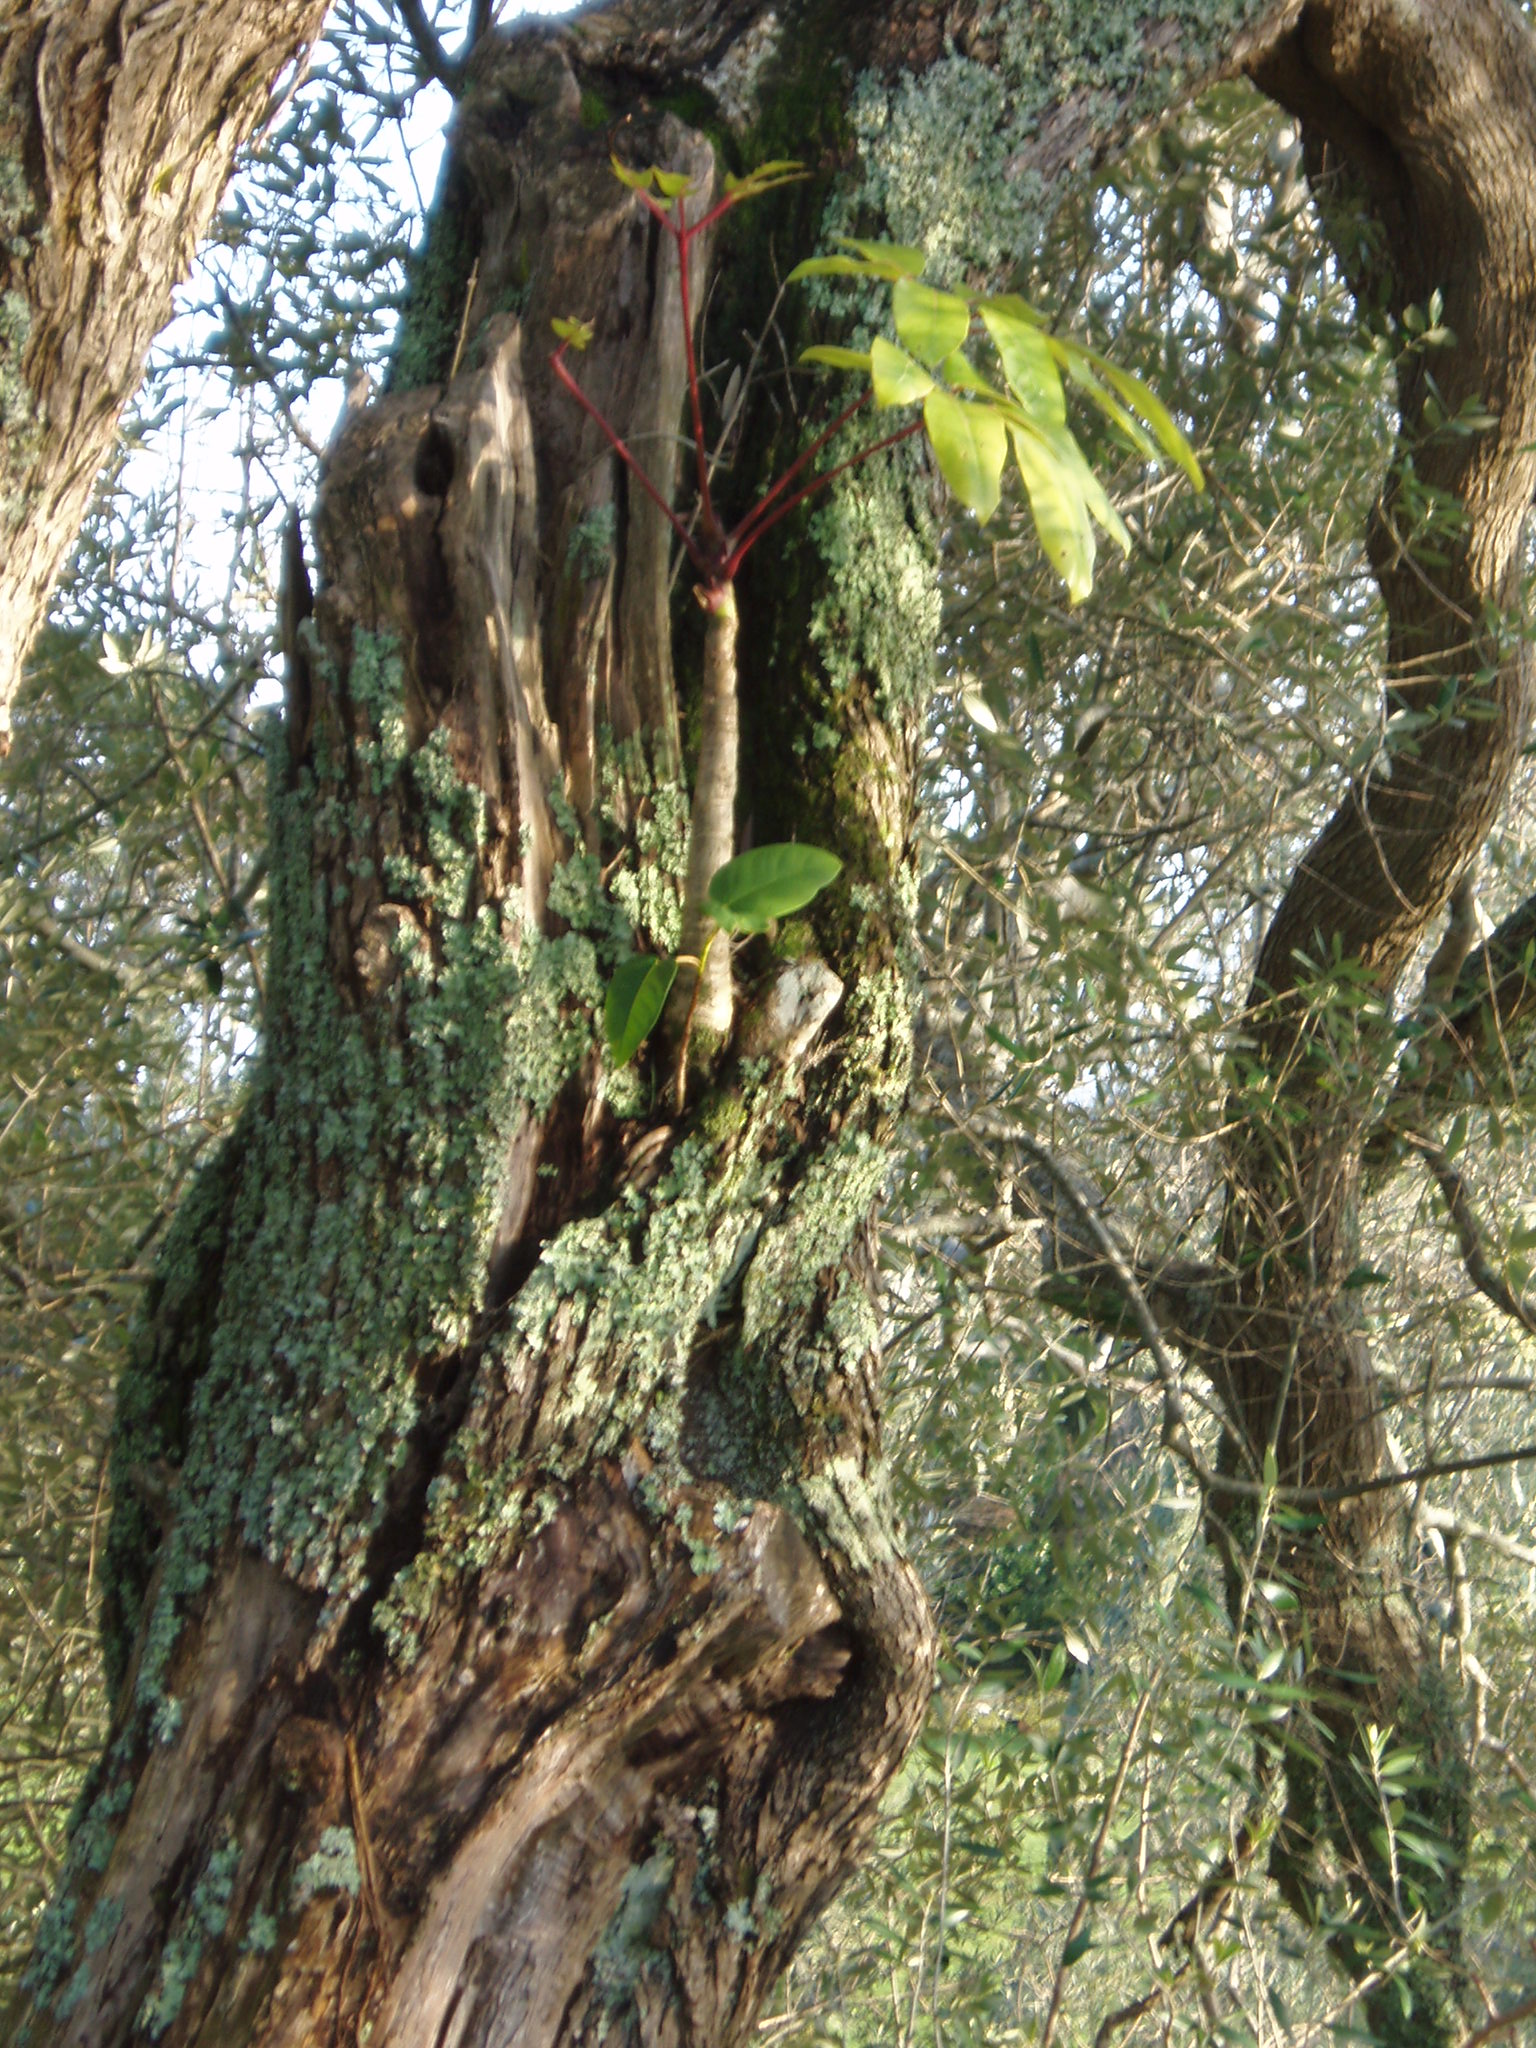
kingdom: Plantae
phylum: Tracheophyta
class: Magnoliopsida
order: Apiales
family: Araliaceae
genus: Heptapleurum
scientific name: Heptapleurum actinophyllum
